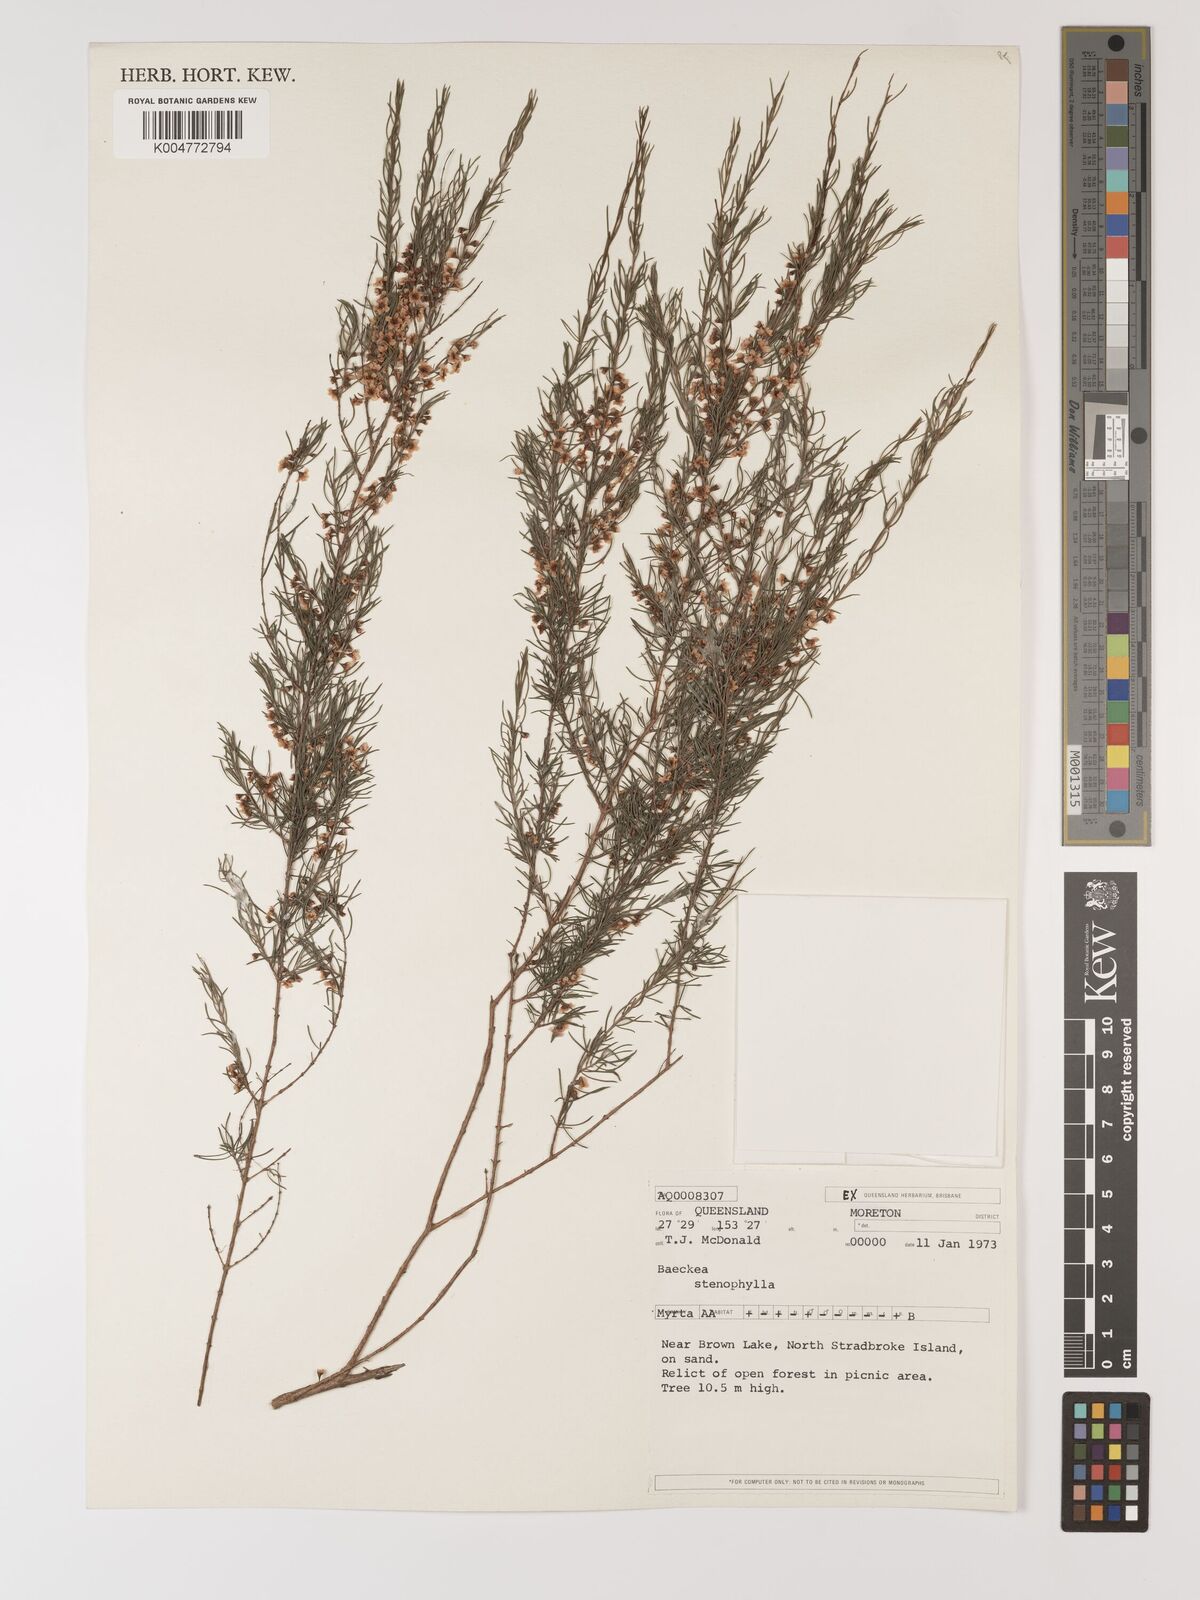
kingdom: Plantae
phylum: Tracheophyta
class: Magnoliopsida
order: Myrtales
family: Myrtaceae
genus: Baeckea
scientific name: Baeckea frutescens
